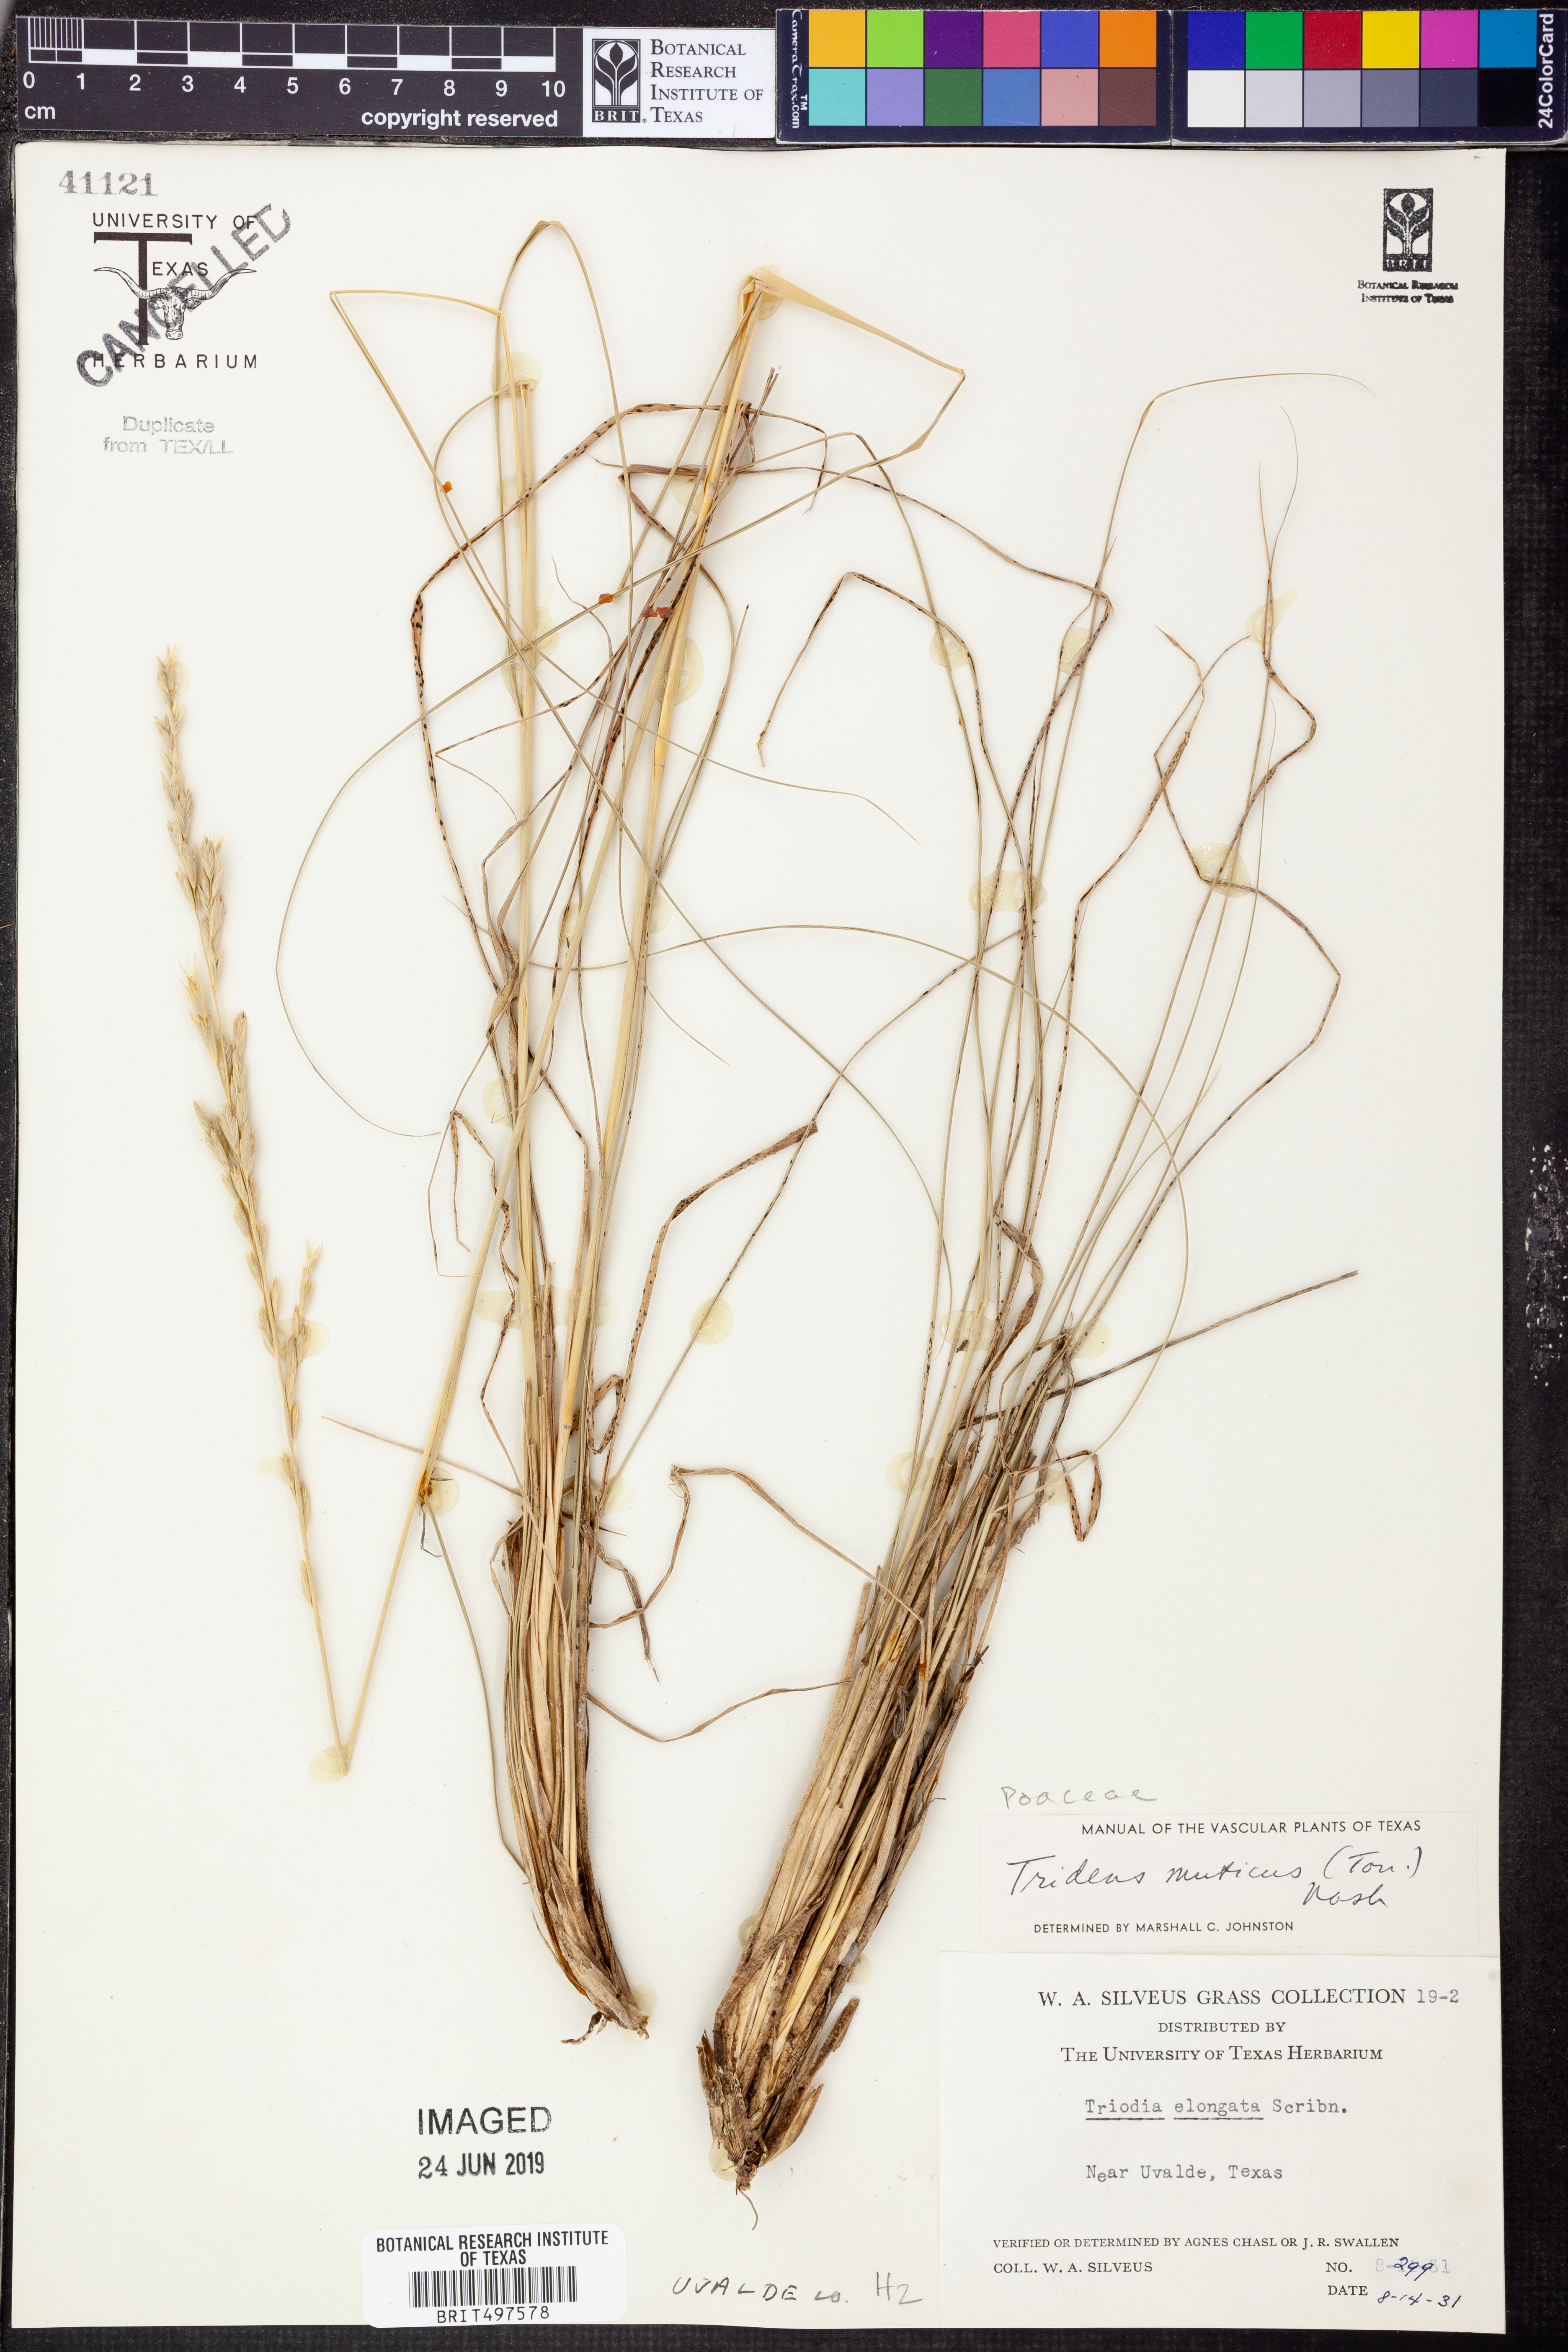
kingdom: Plantae
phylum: Tracheophyta
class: Liliopsida
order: Poales
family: Poaceae
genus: Tridentopsis
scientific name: Tridentopsis mutica
